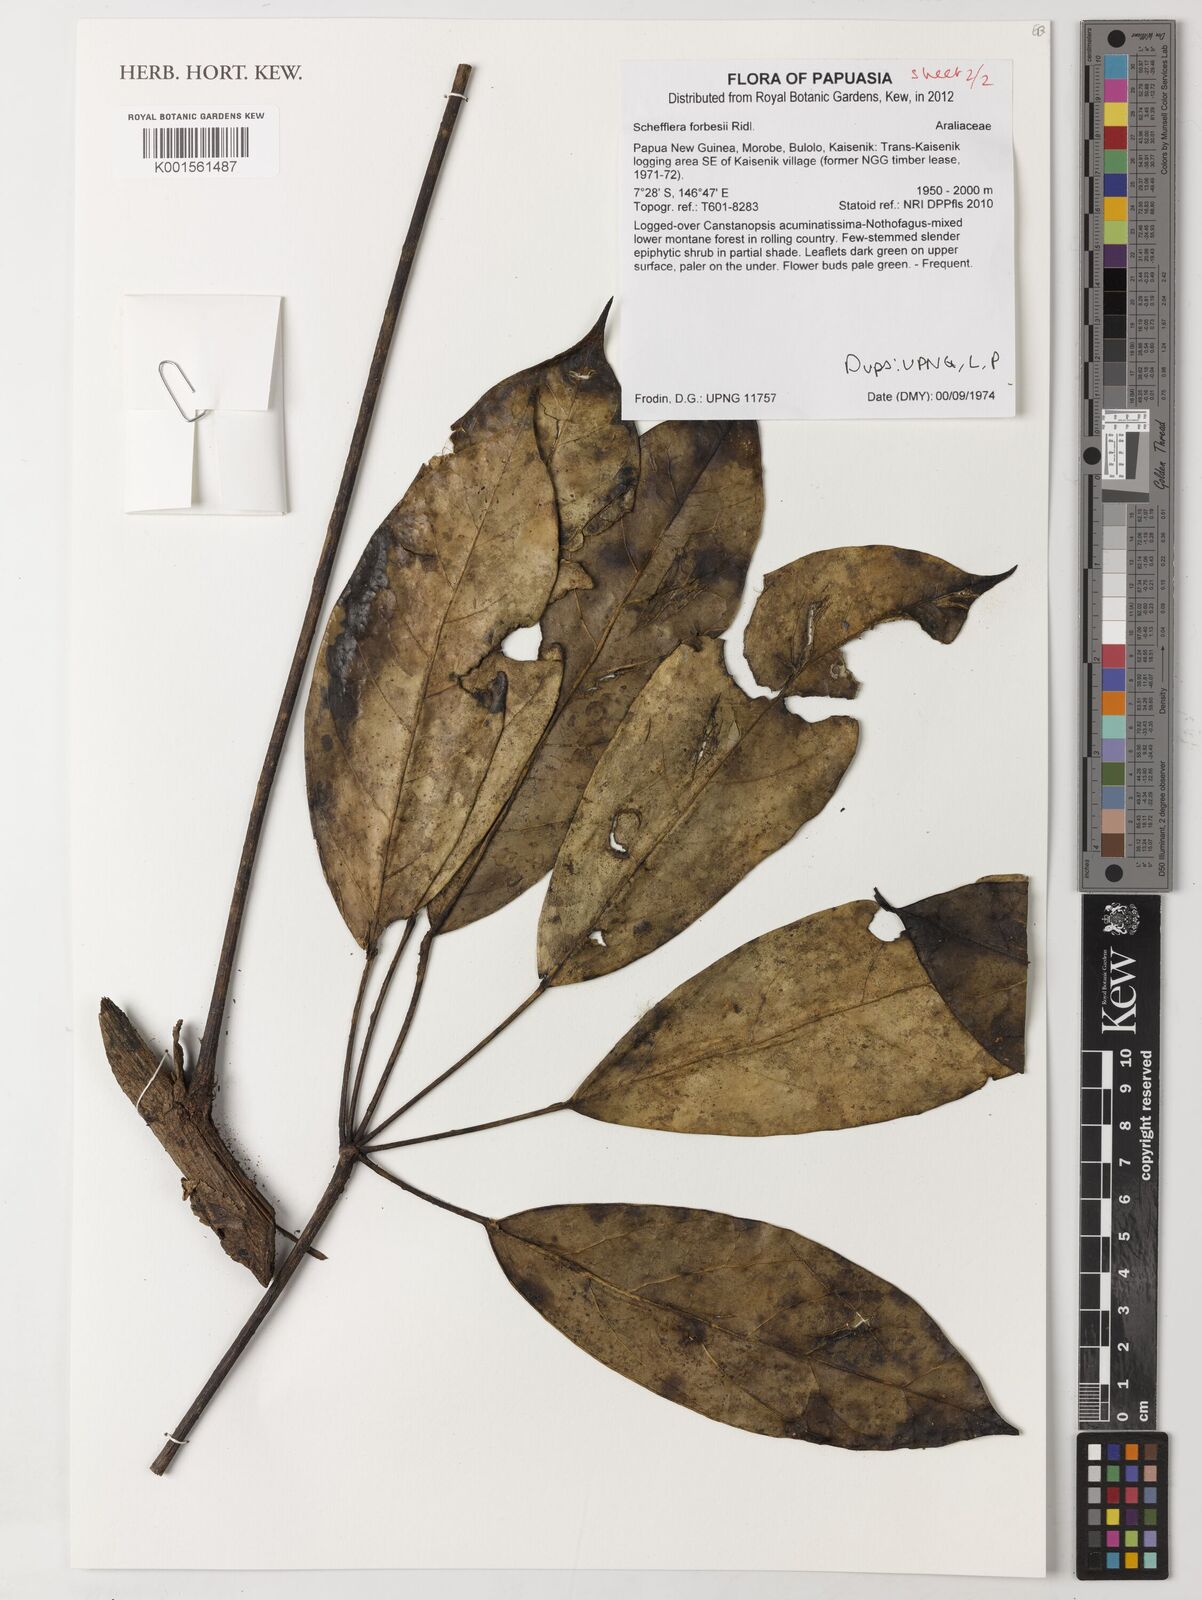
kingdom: Plantae
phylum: Tracheophyta
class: Magnoliopsida
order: Apiales
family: Araliaceae
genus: Heptapleurum
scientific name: Heptapleurum forbesii
